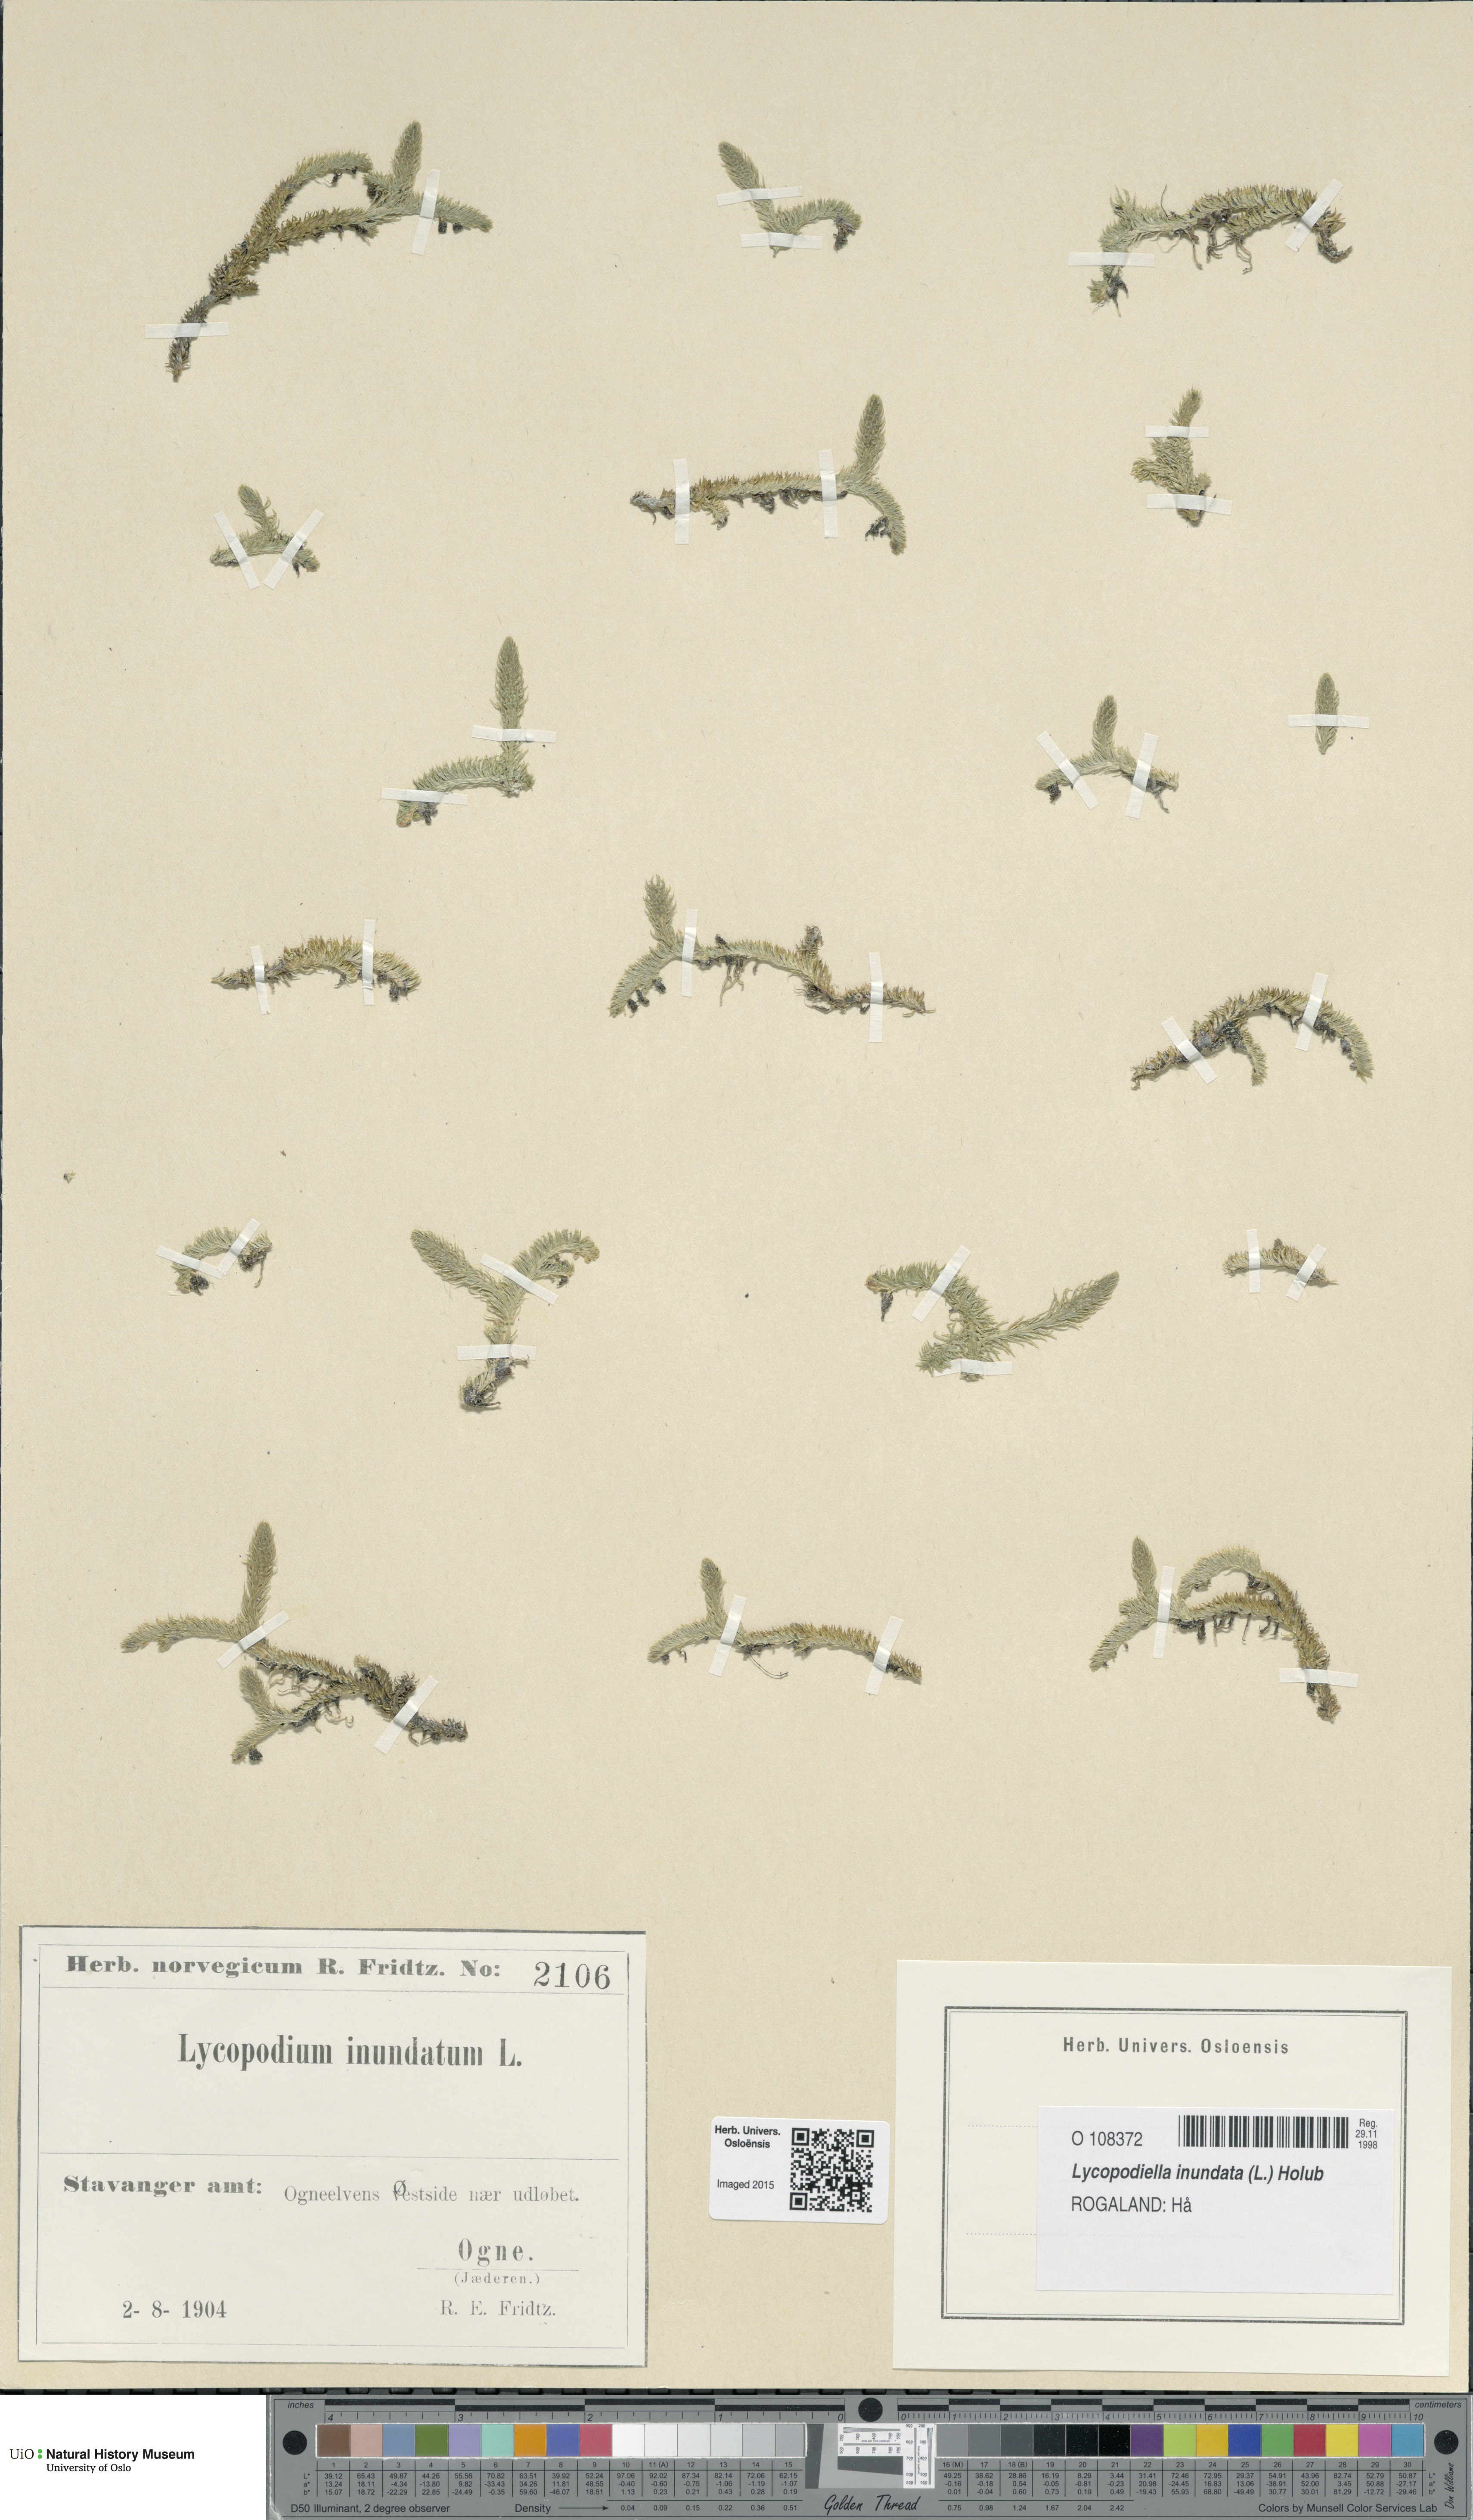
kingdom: Plantae
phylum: Tracheophyta
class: Lycopodiopsida
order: Lycopodiales
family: Lycopodiaceae
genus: Lycopodiella
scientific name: Lycopodiella inundata
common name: Marsh clubmoss
